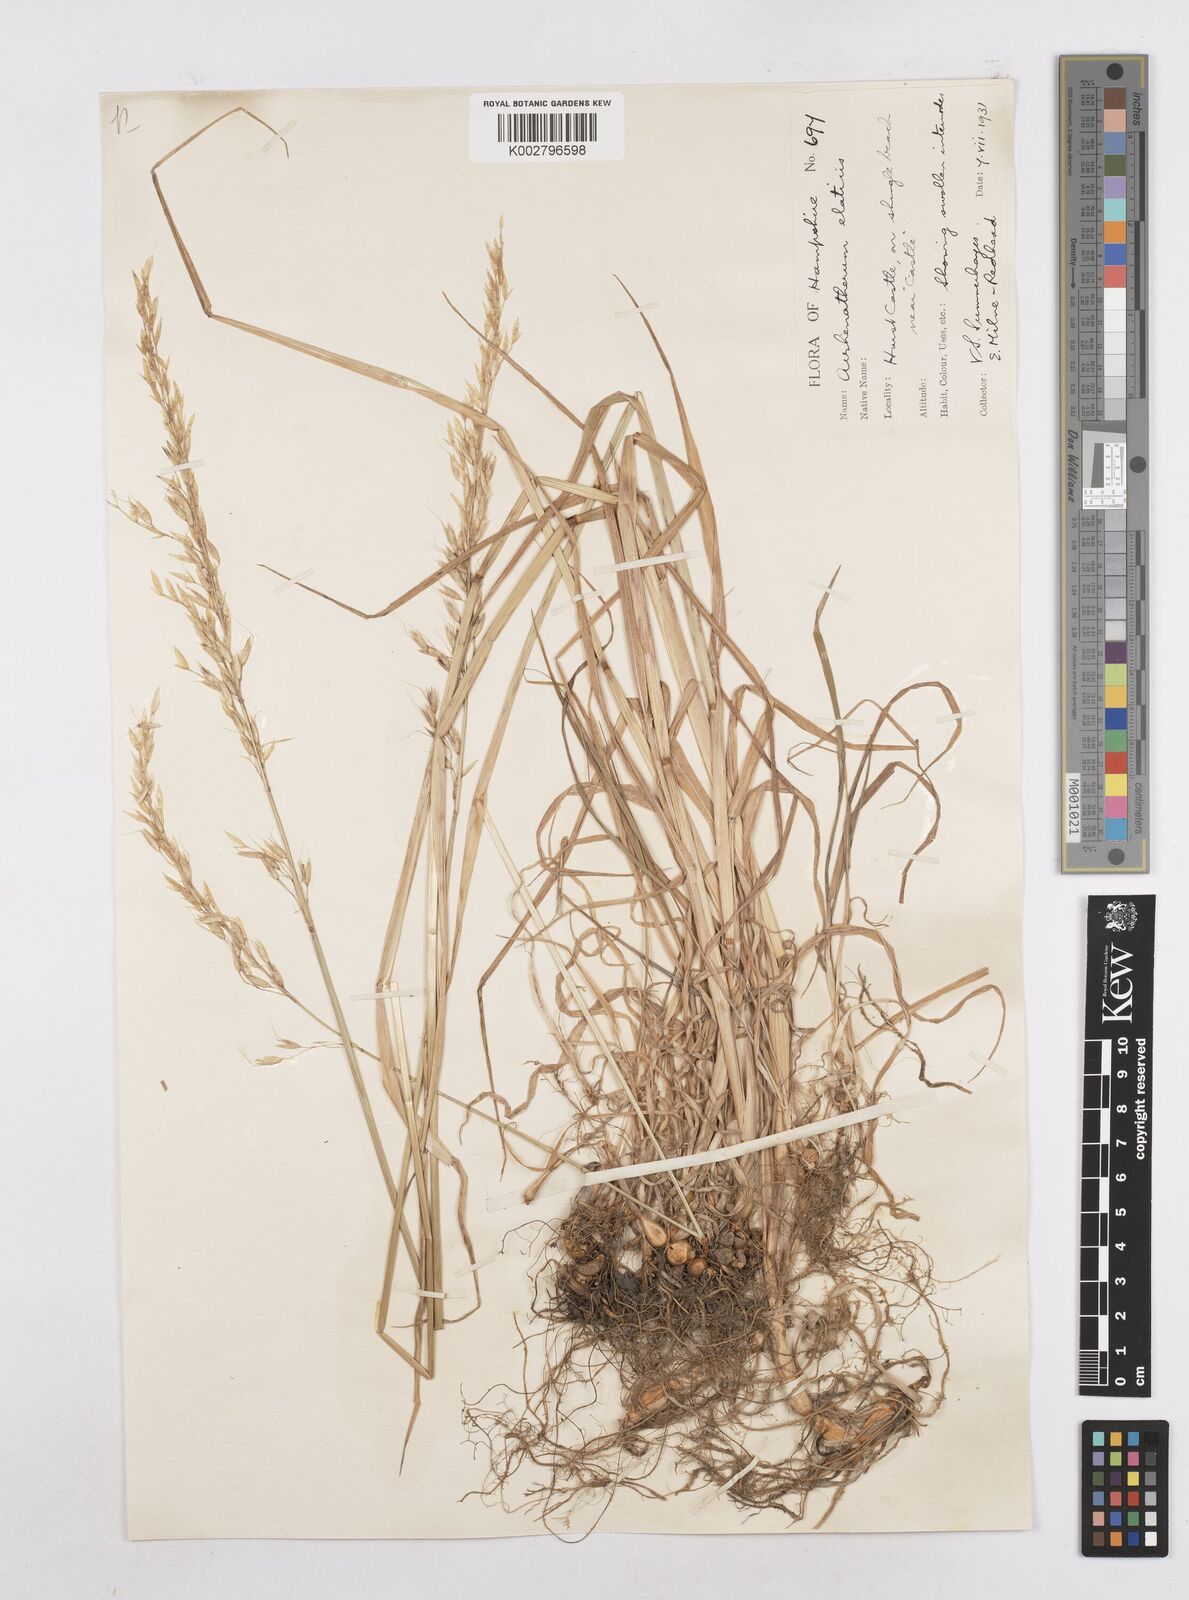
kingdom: Plantae
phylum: Tracheophyta
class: Liliopsida
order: Poales
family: Poaceae
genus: Arrhenatherum
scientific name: Arrhenatherum elatius
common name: Tall oatgrass
